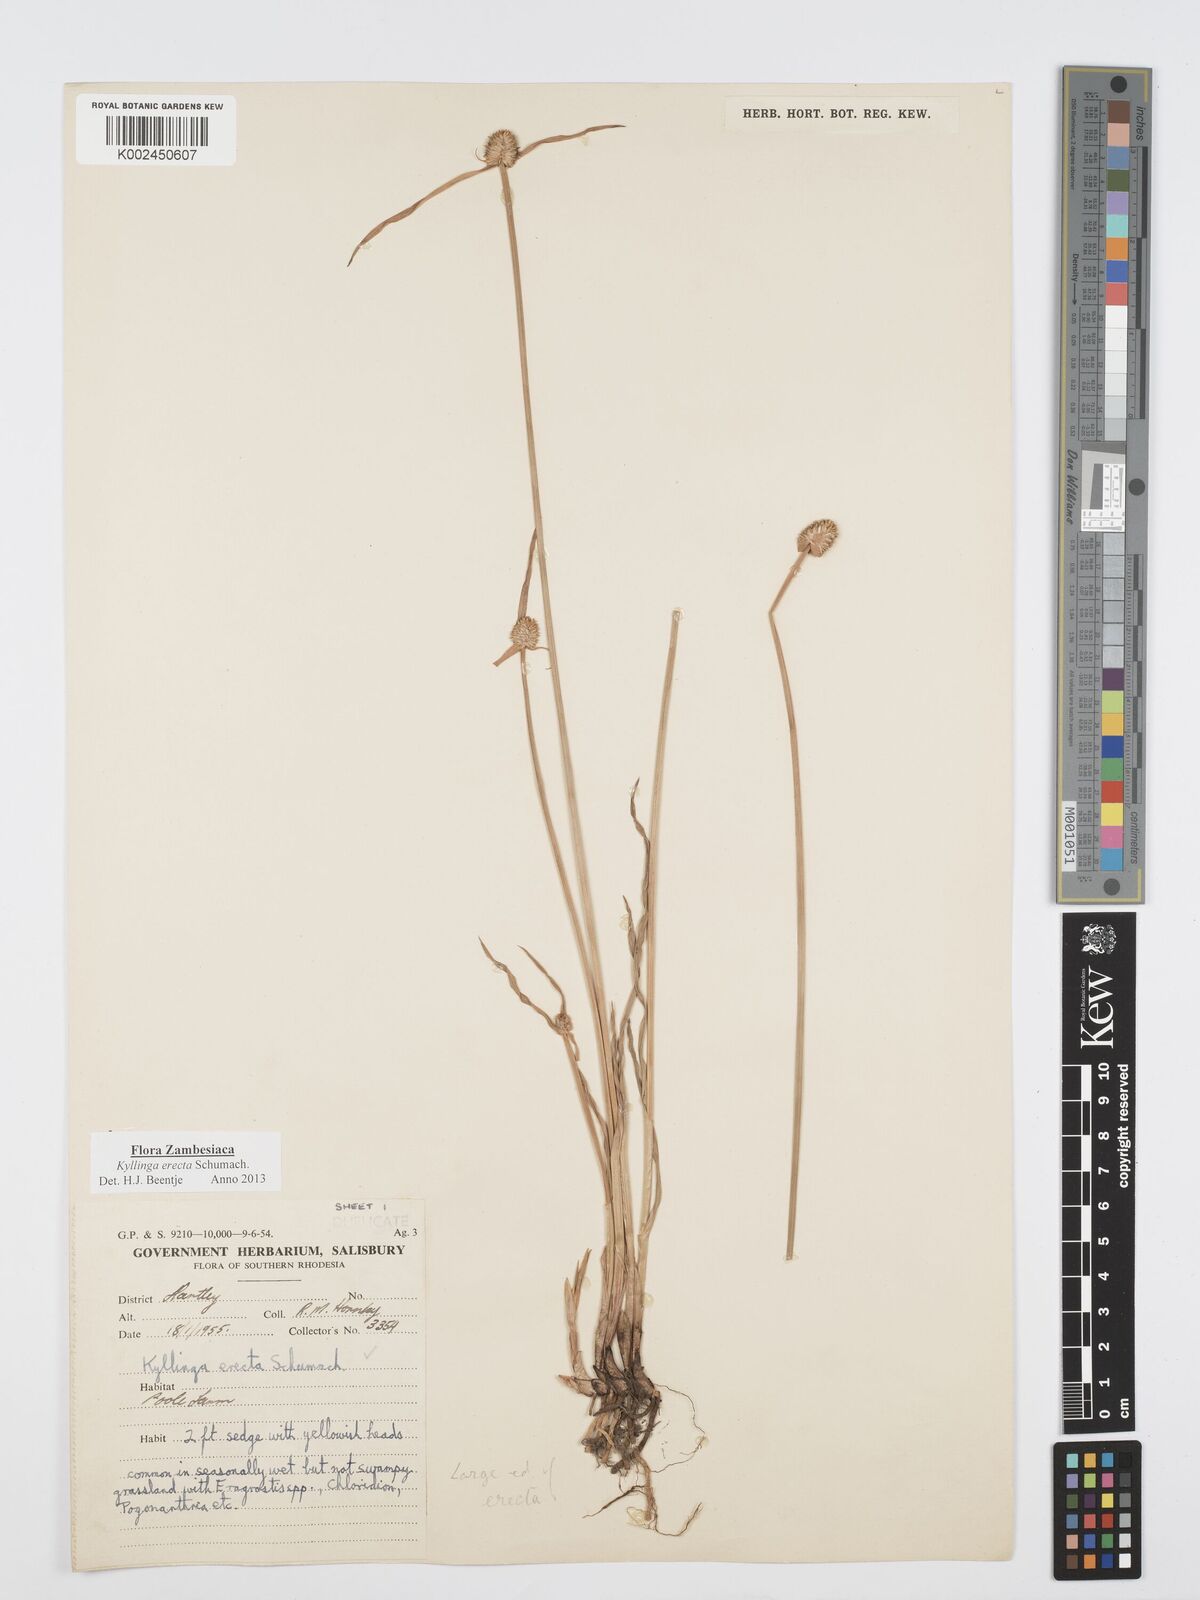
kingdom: Plantae
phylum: Tracheophyta
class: Liliopsida
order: Poales
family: Cyperaceae
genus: Cyperus
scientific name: Cyperus erectus
